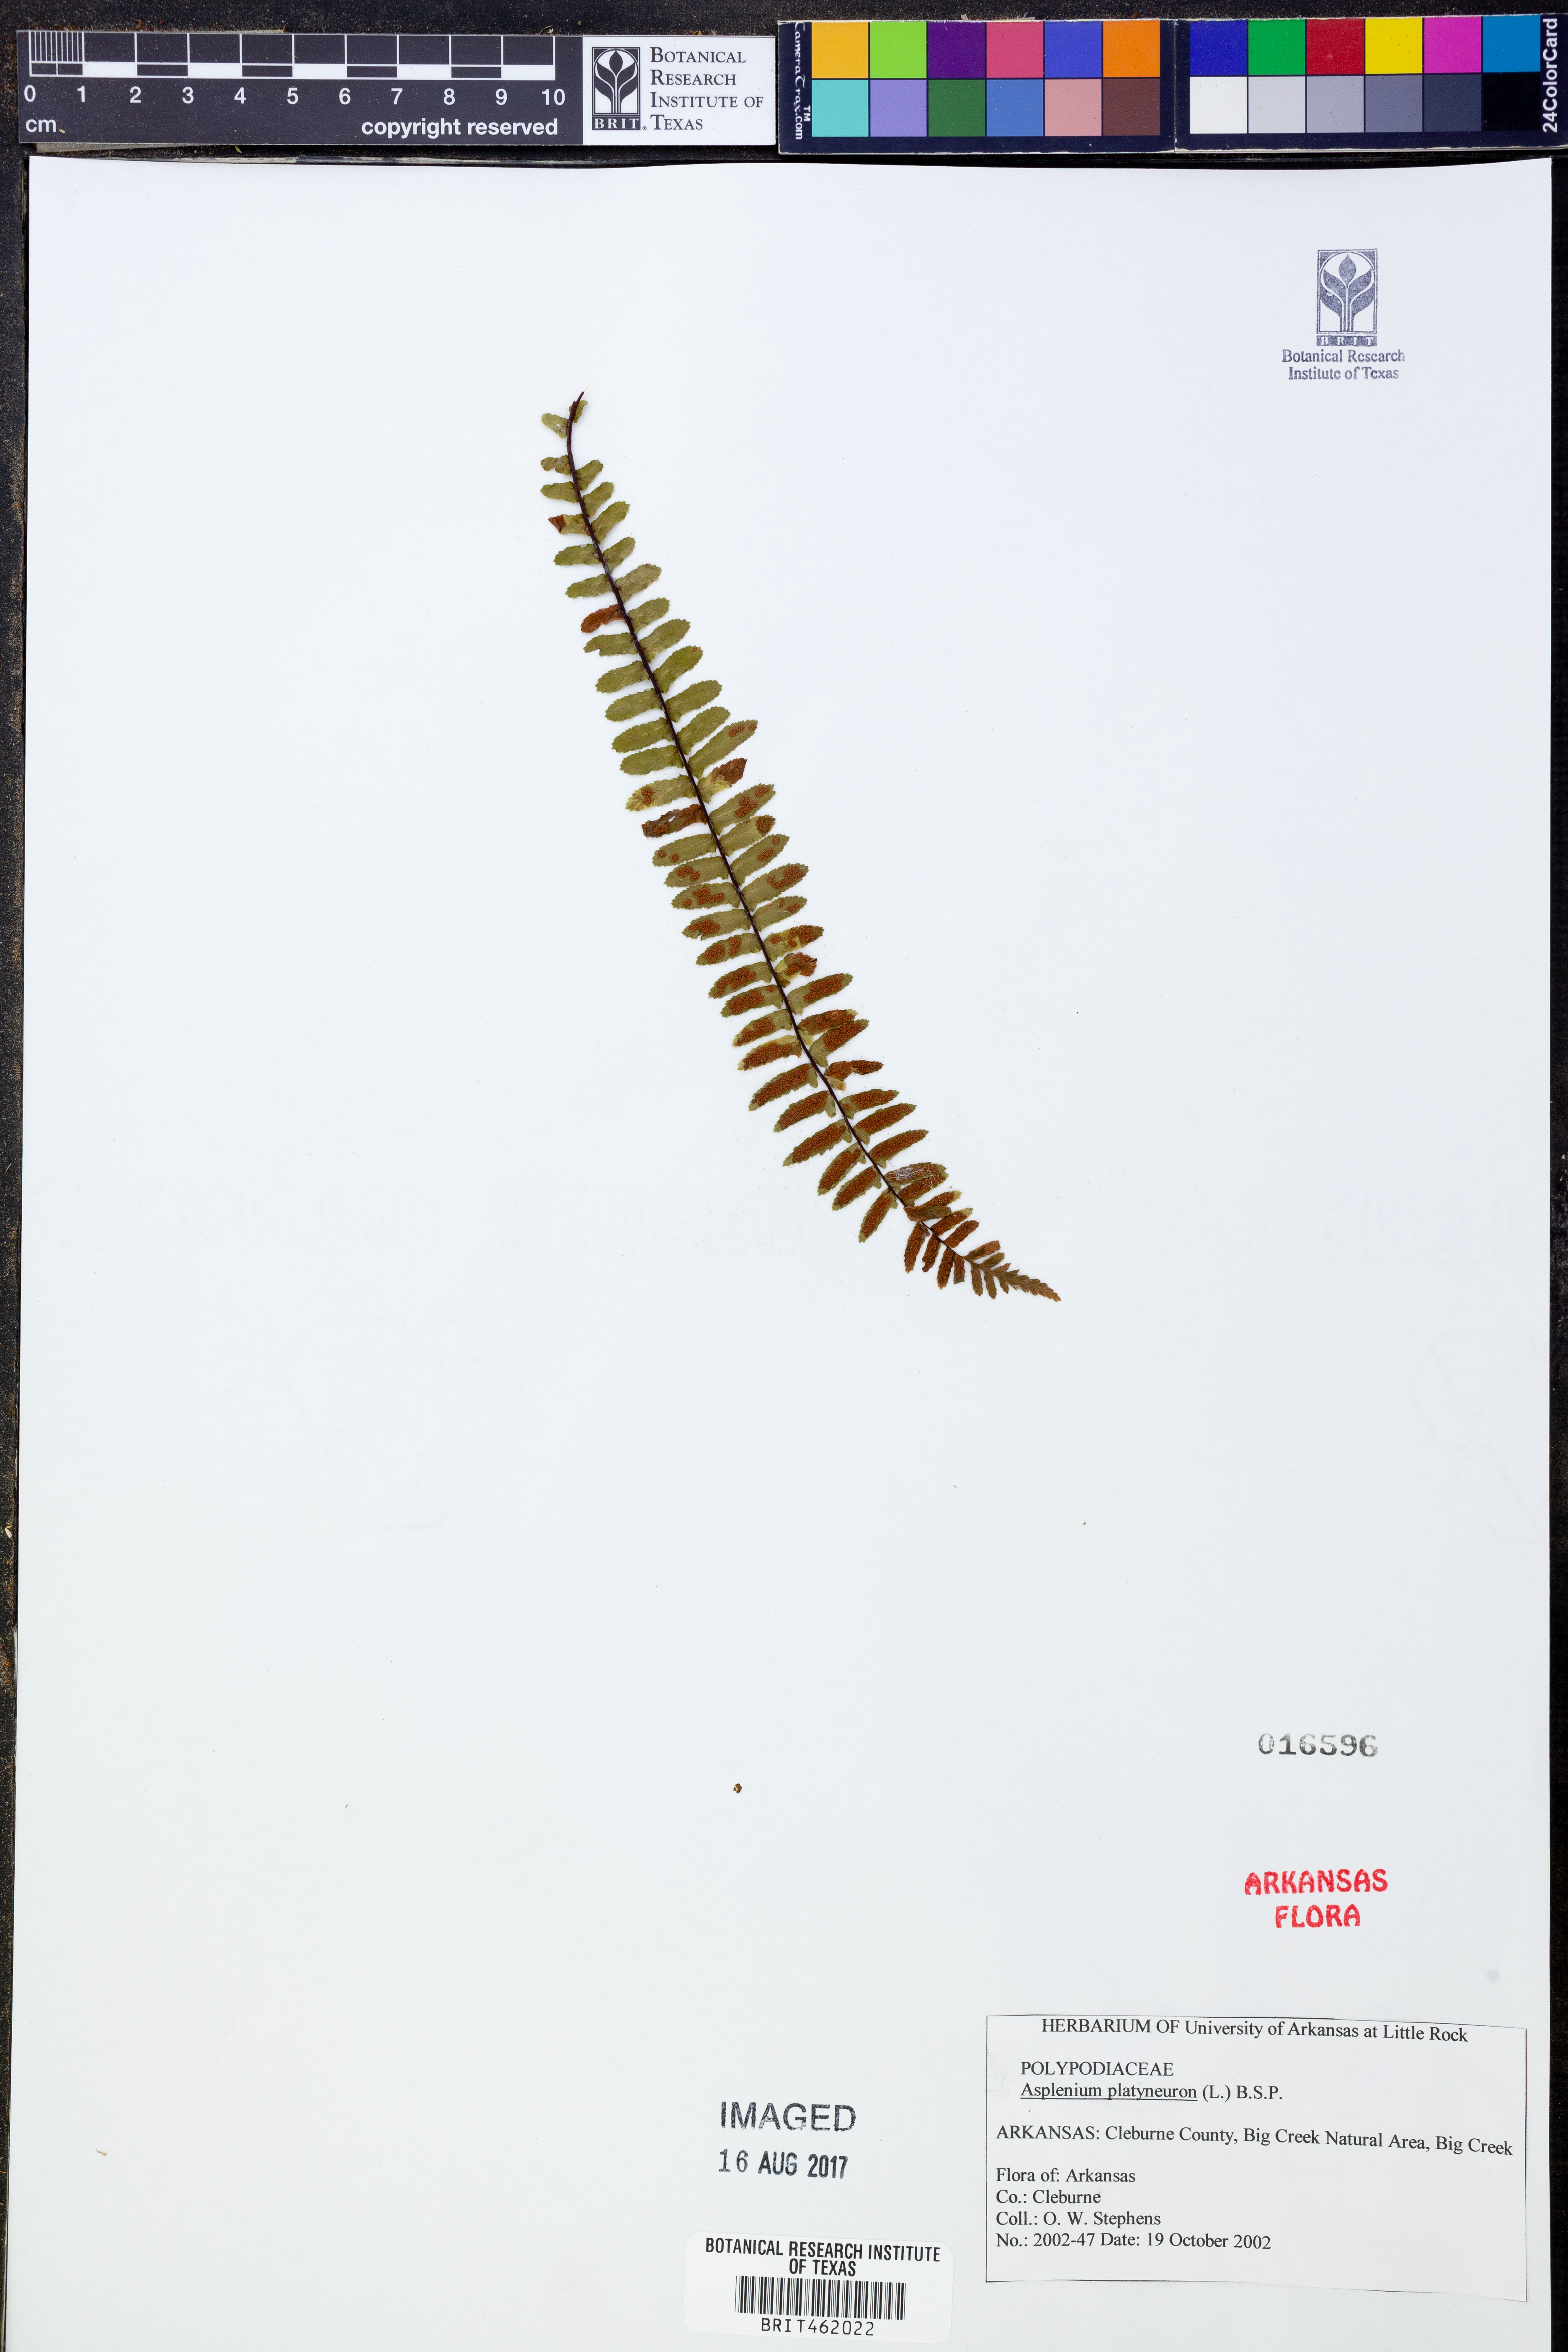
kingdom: Plantae
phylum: Tracheophyta
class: Polypodiopsida
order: Polypodiales
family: Aspleniaceae
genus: Asplenium
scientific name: Asplenium platyneuron
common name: Ebony spleenwort
